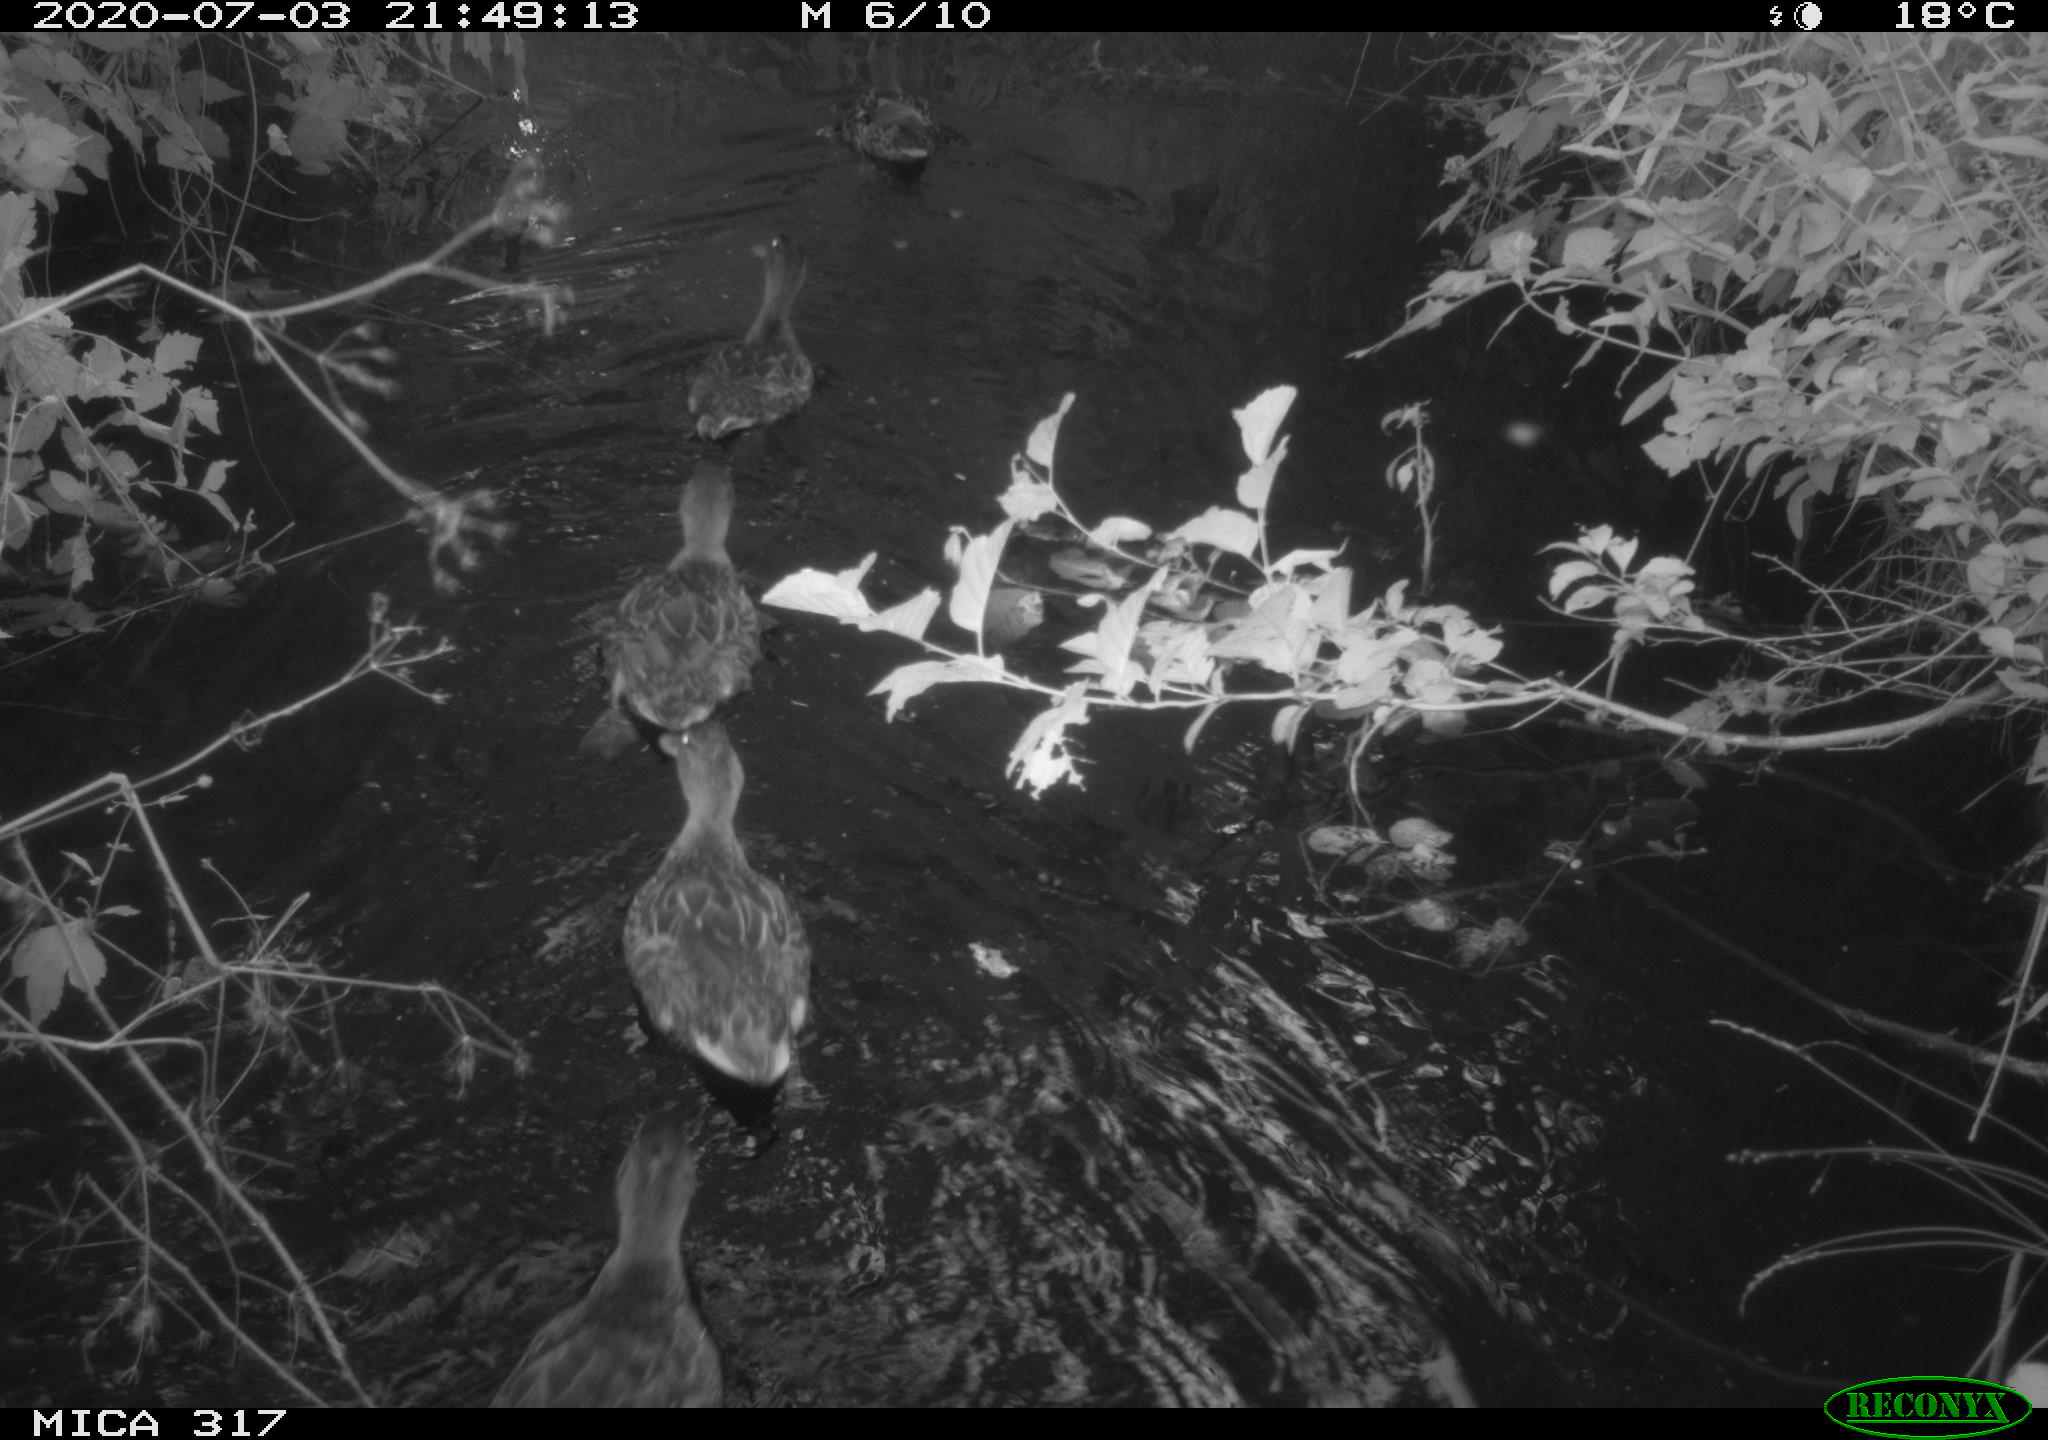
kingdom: Animalia
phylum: Chordata
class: Aves
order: Anseriformes
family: Anatidae
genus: Anas
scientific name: Anas platyrhynchos
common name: Mallard
